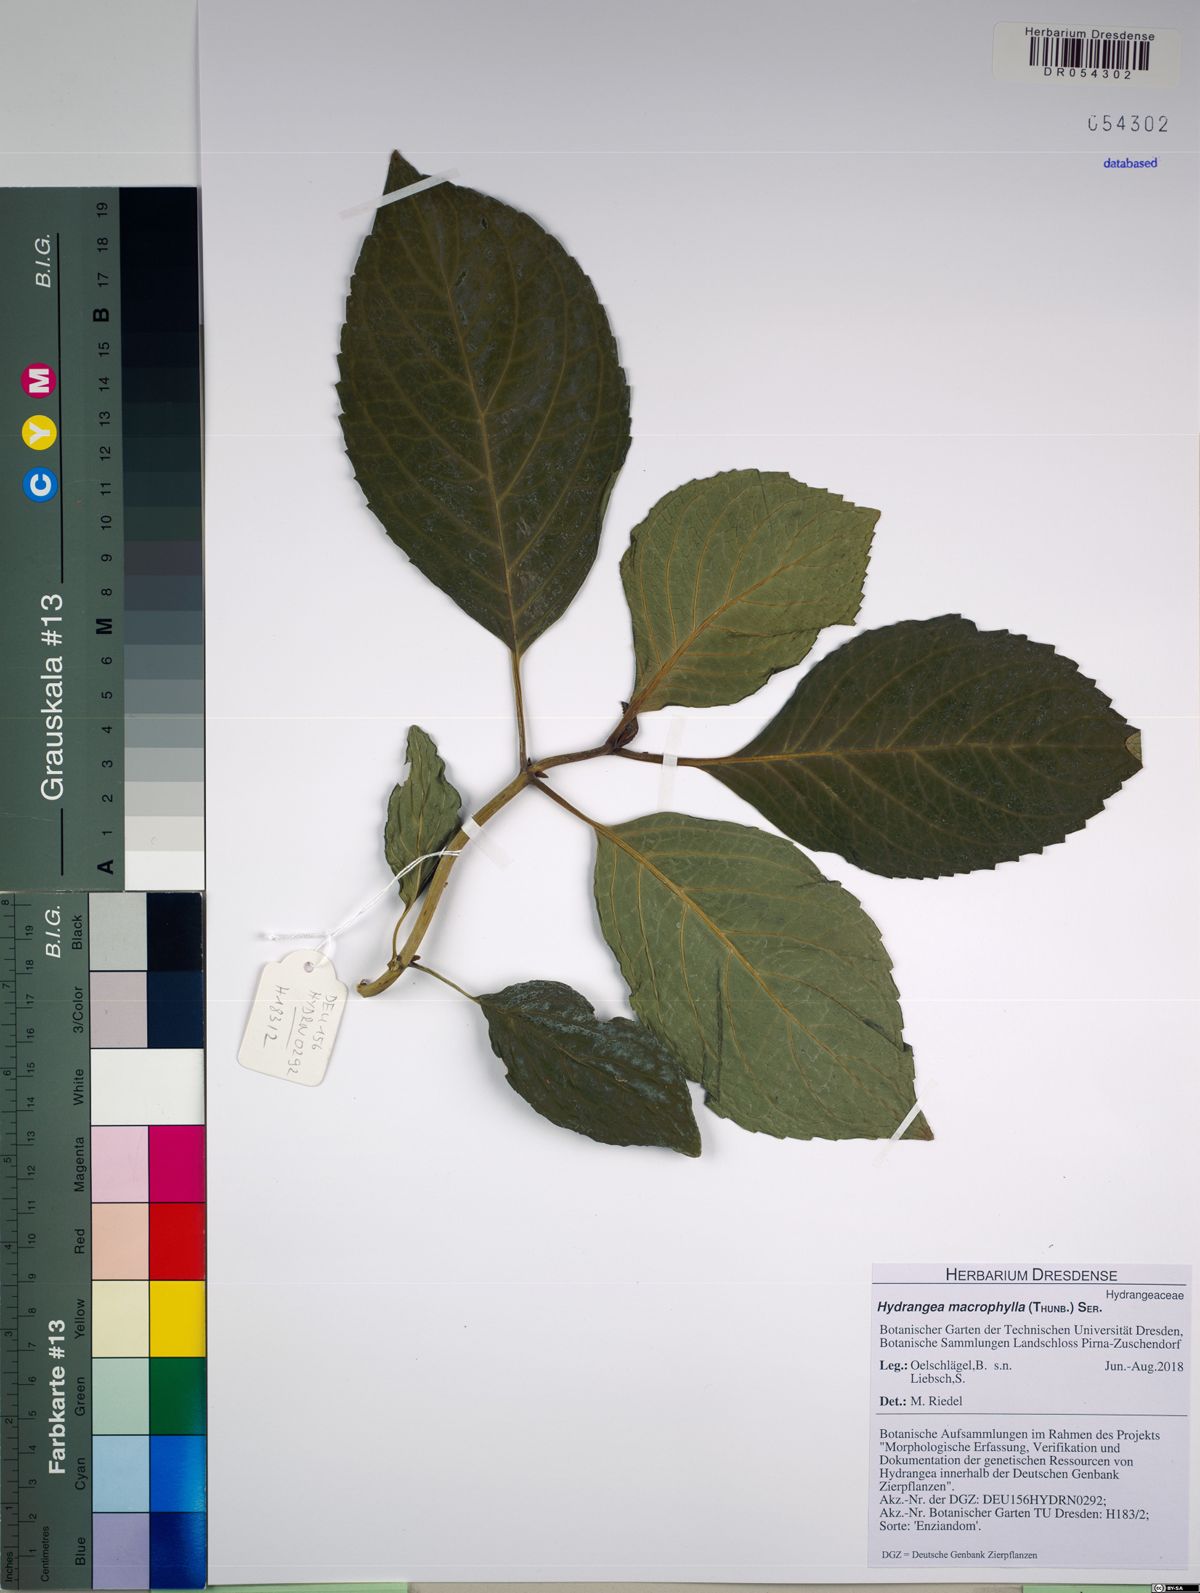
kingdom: Plantae
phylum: Tracheophyta
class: Magnoliopsida
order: Cornales
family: Hydrangeaceae
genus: Hydrangea
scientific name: Hydrangea macrophylla
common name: Hydrangea
